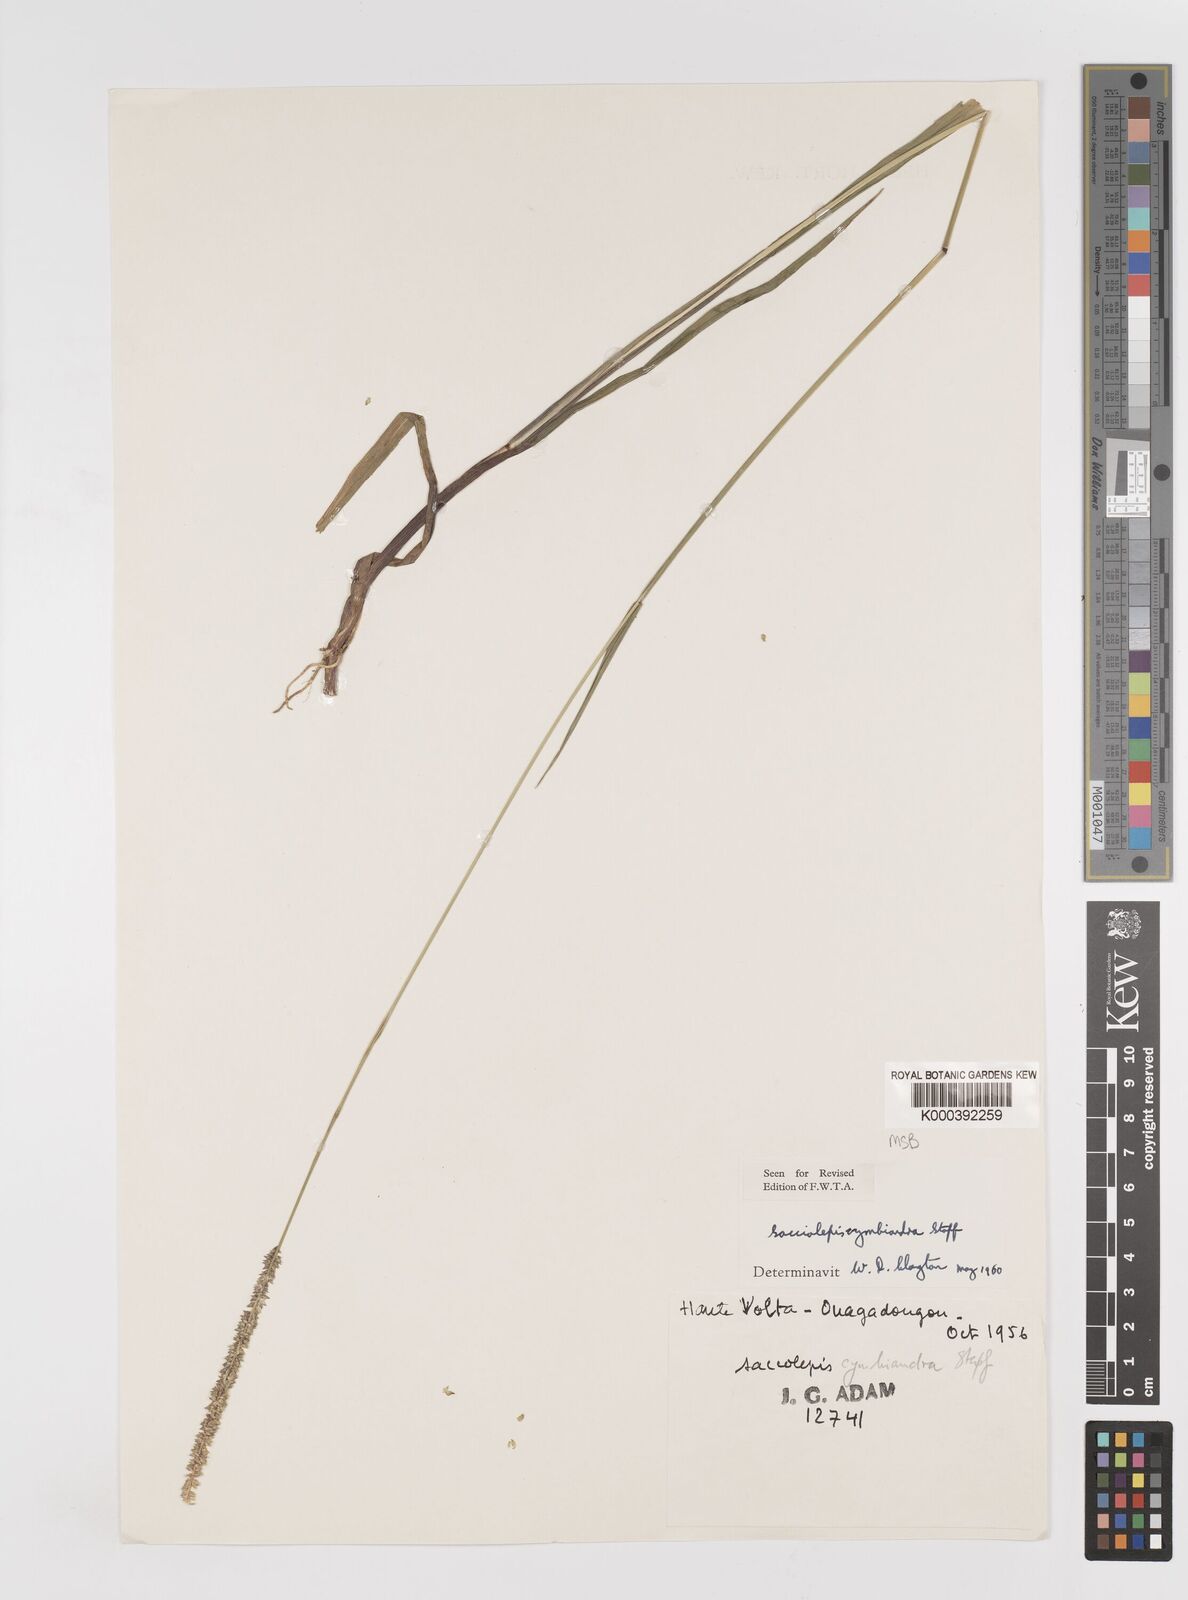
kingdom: Plantae
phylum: Tracheophyta
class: Liliopsida
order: Poales
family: Poaceae
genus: Sacciolepis
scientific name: Sacciolepis cymbiandra
